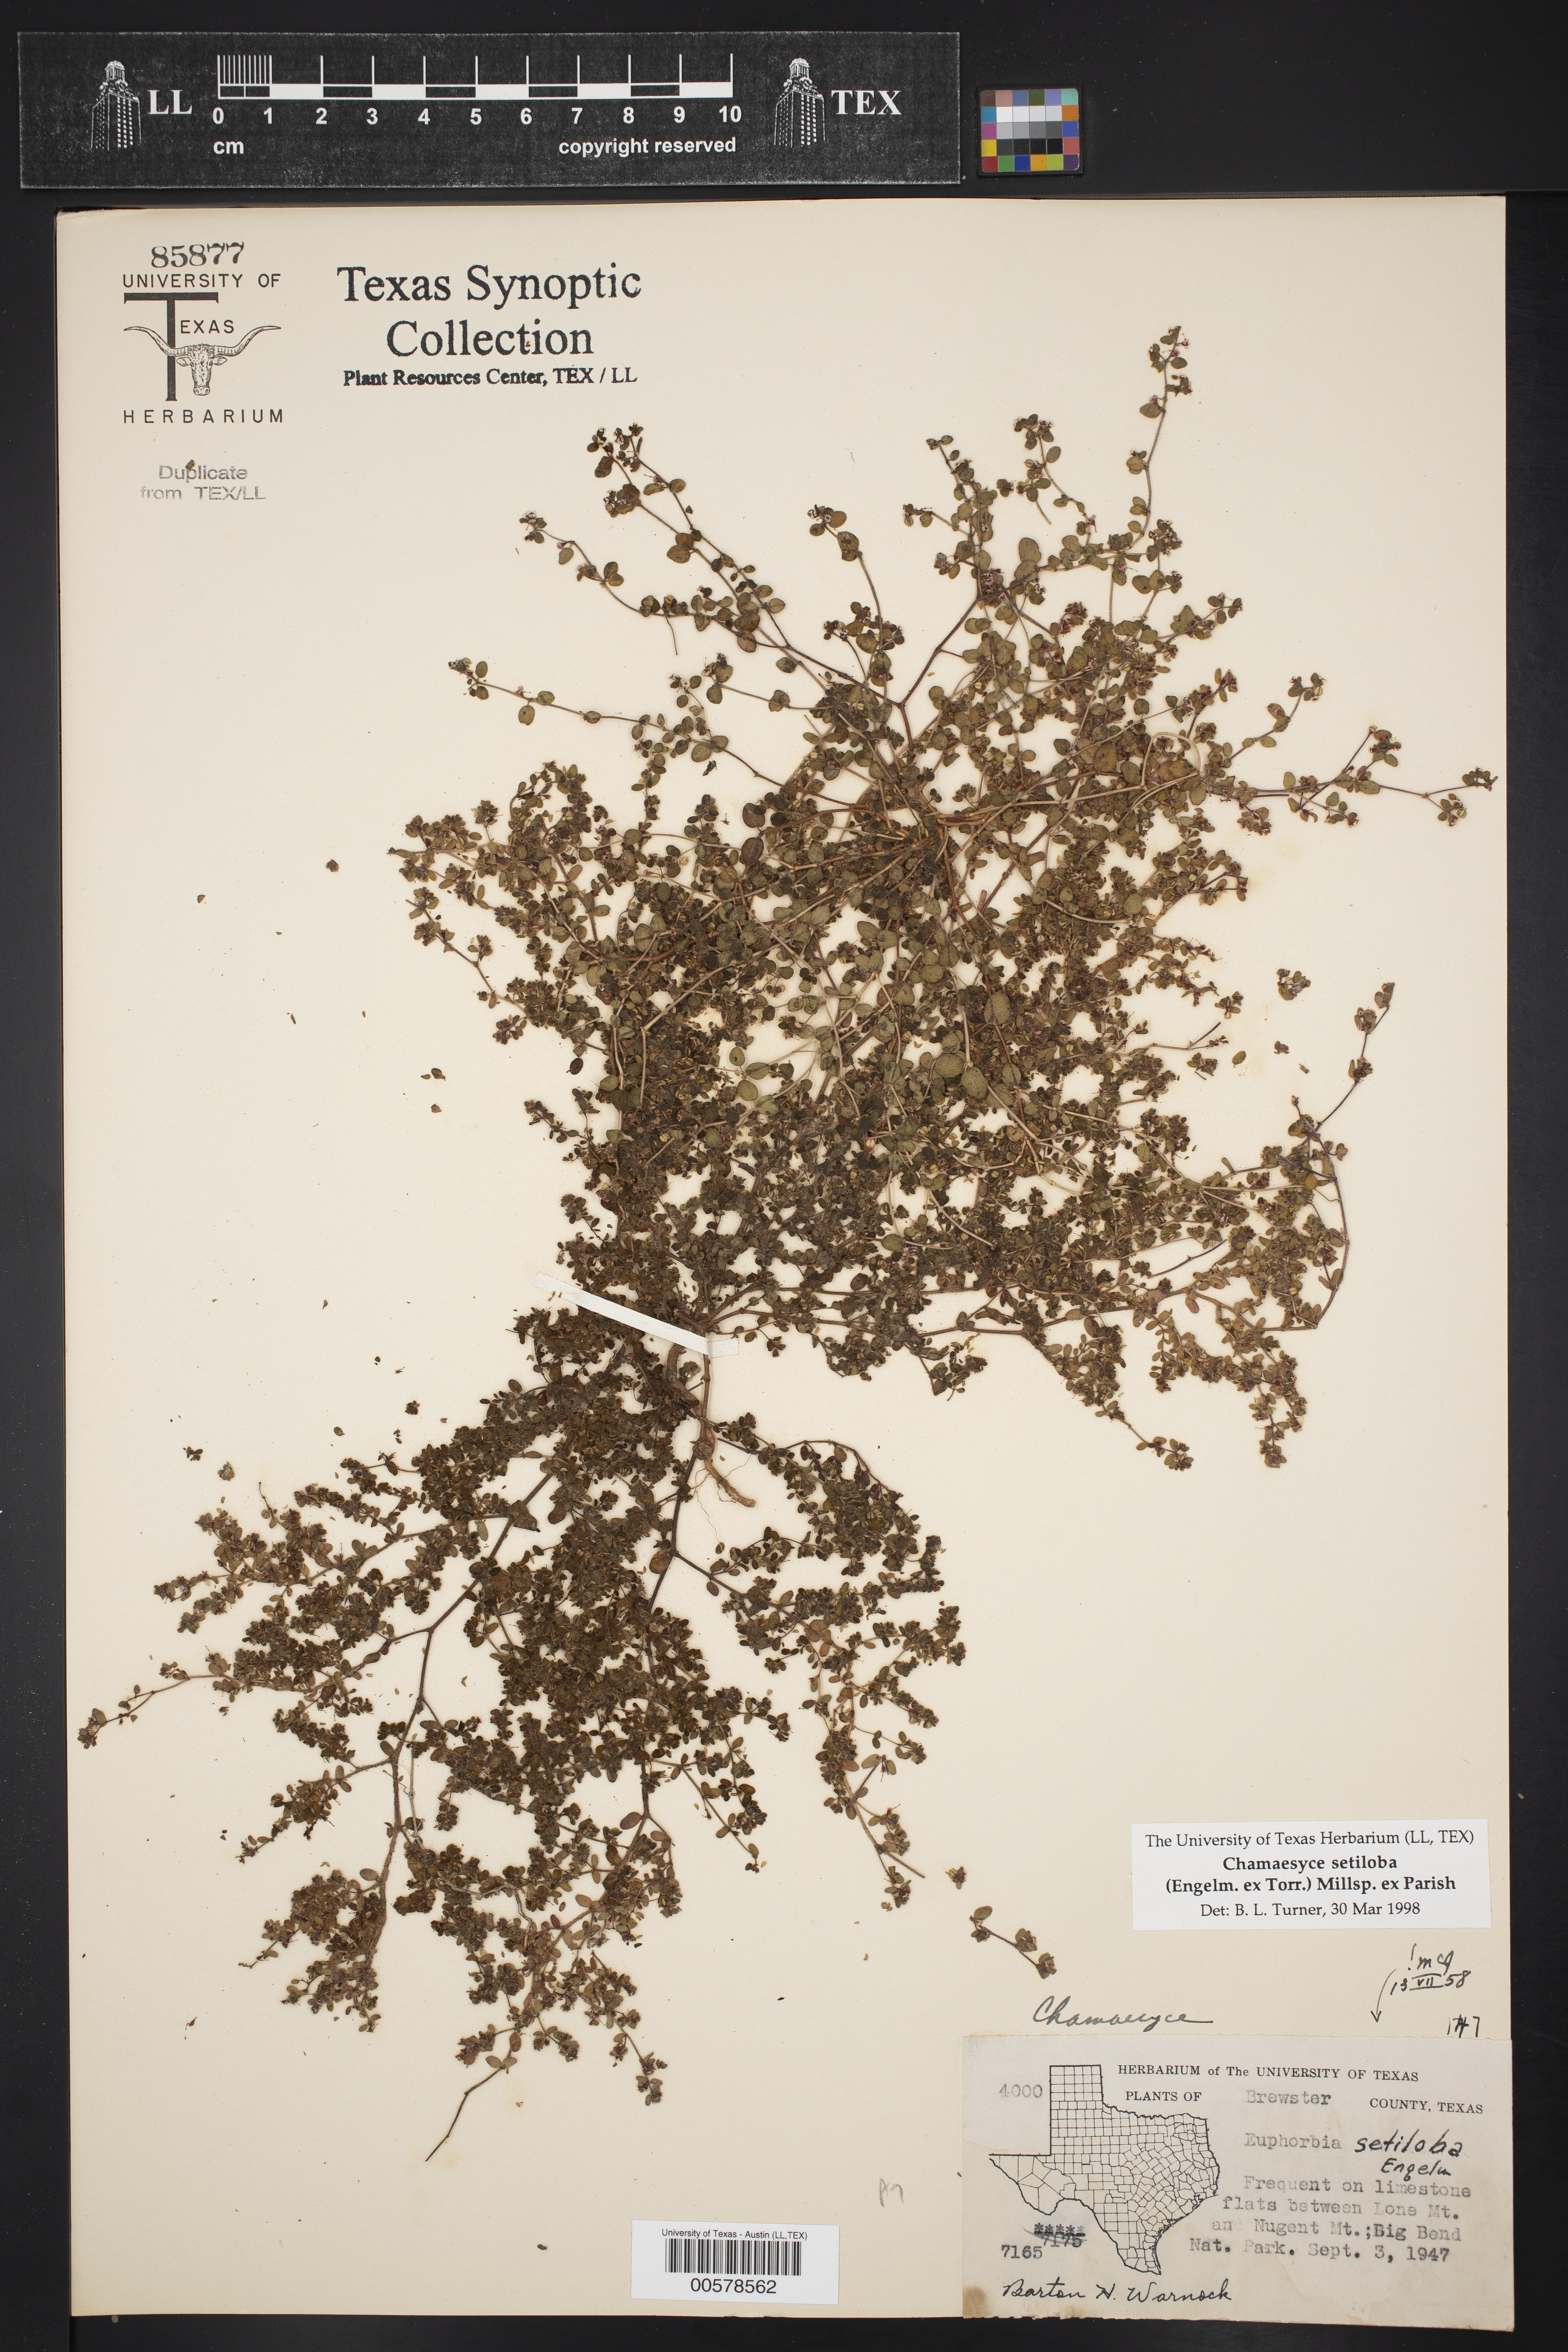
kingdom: Plantae
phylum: Tracheophyta
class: Magnoliopsida
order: Malpighiales
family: Euphorbiaceae
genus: Euphorbia
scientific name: Euphorbia setiloba
